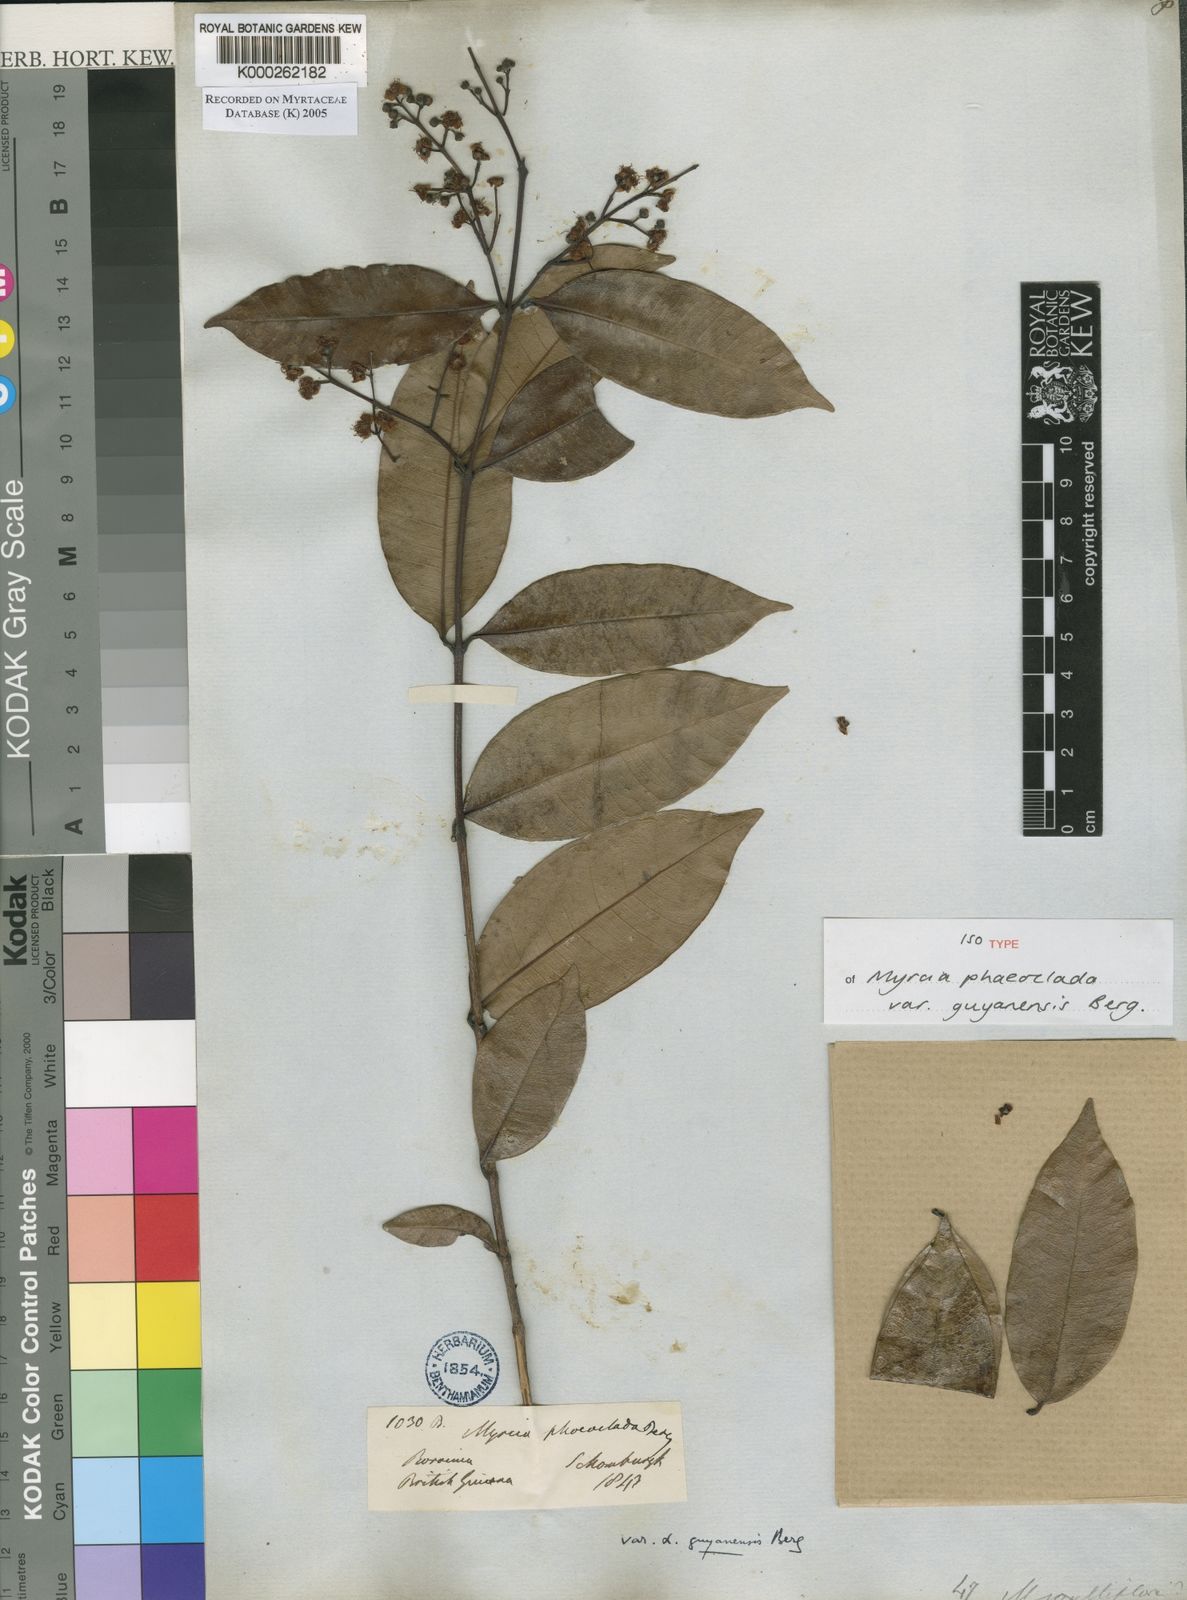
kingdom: Plantae
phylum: Tracheophyta
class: Magnoliopsida
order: Myrtales
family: Myrtaceae
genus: Myrcia
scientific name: Myrcia splendens
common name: Surinam cherry
